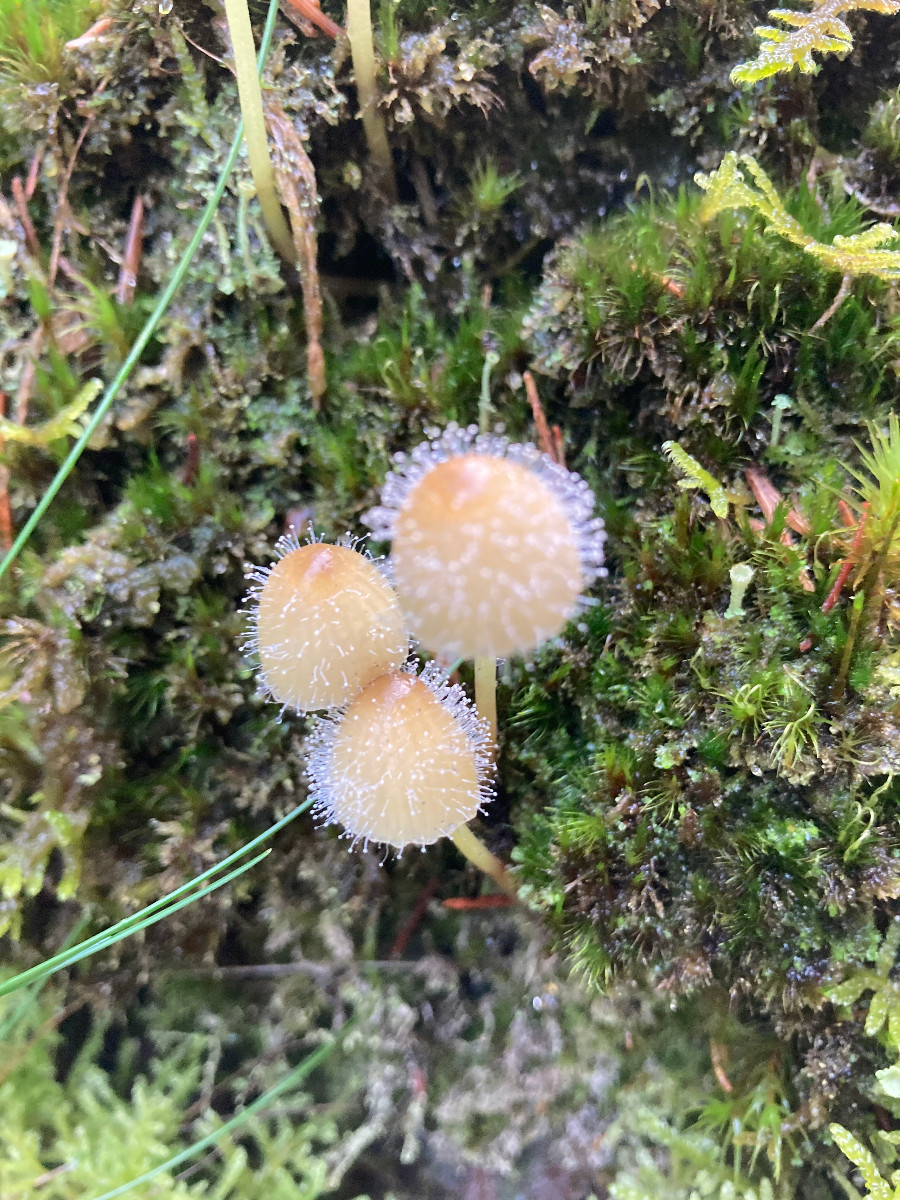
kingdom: Fungi
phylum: Mucoromycota
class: Mucoromycetes
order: Mucorales
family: Phycomycetaceae
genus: Spinellus
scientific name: Spinellus fusiger
